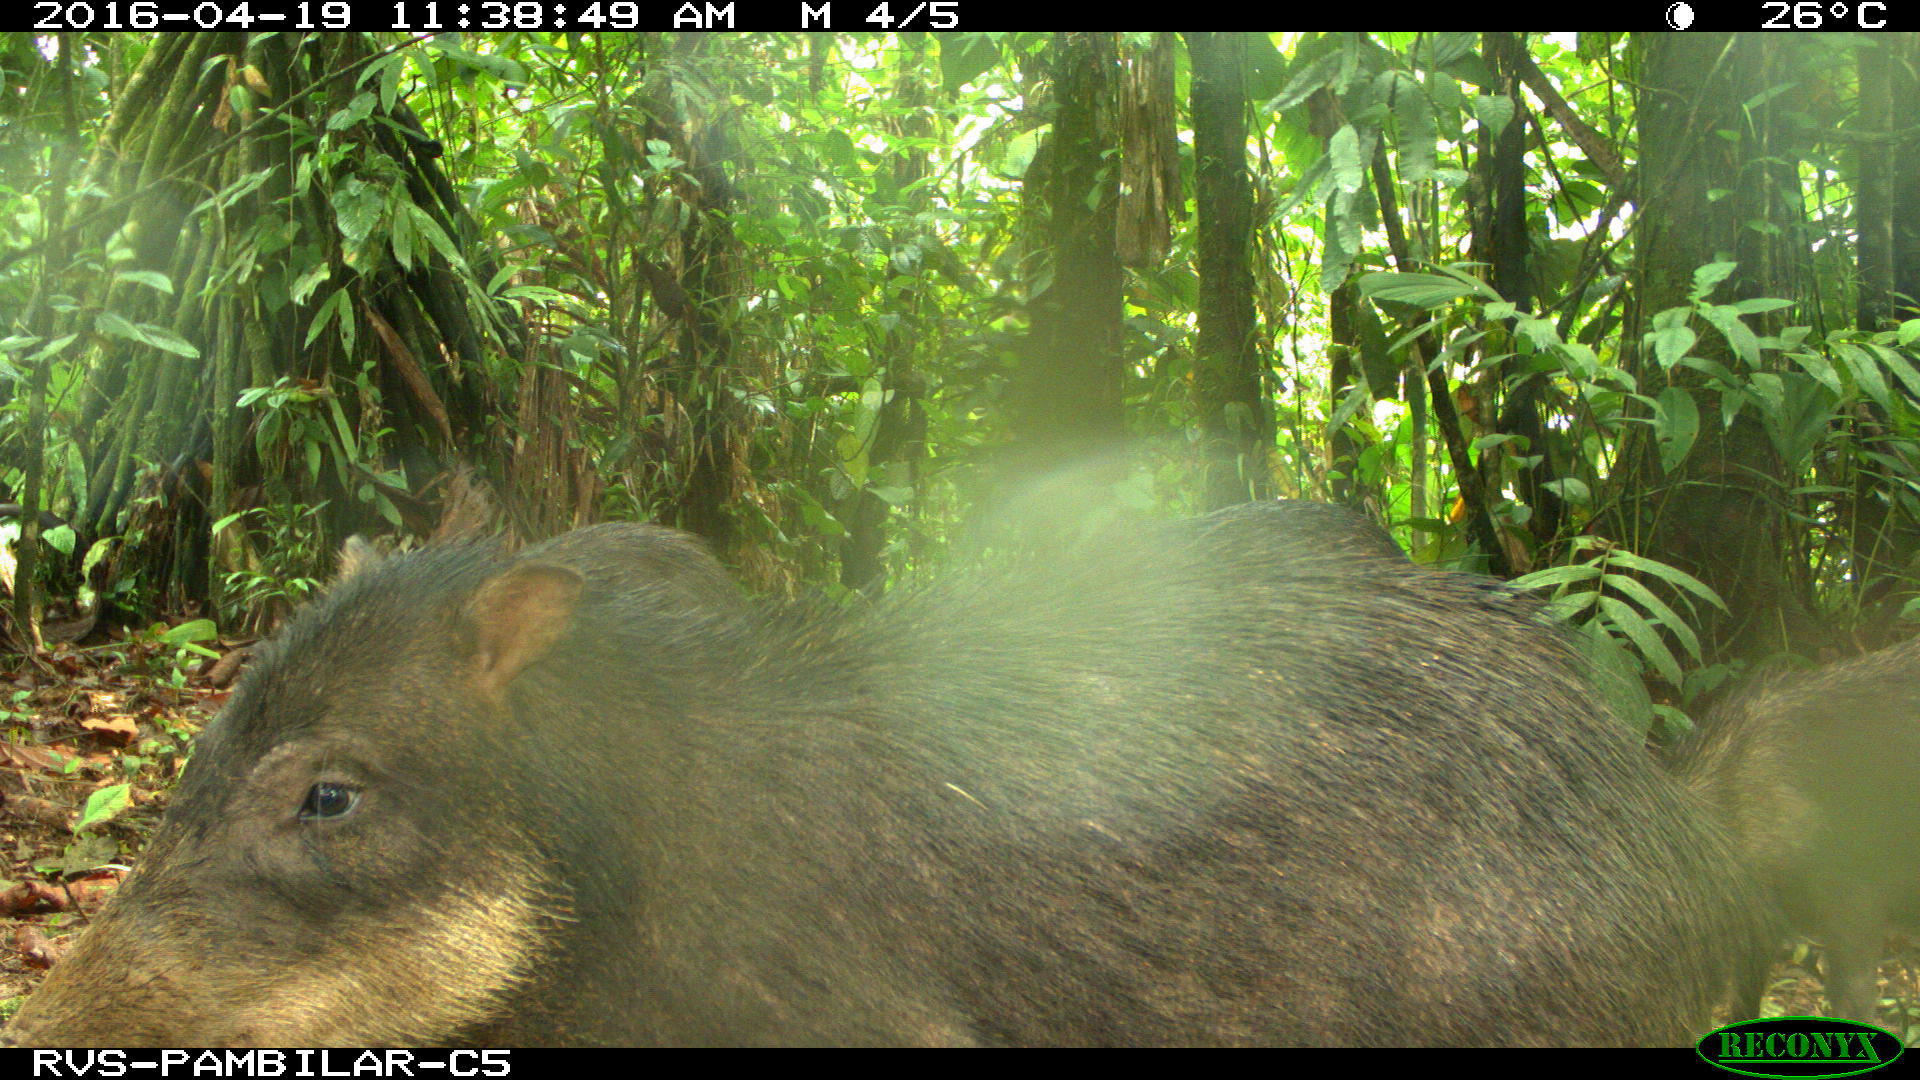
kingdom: Animalia
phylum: Chordata
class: Mammalia
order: Artiodactyla
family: Tayassuidae
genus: Tayassu
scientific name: Tayassu pecari
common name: White-lipped peccary
